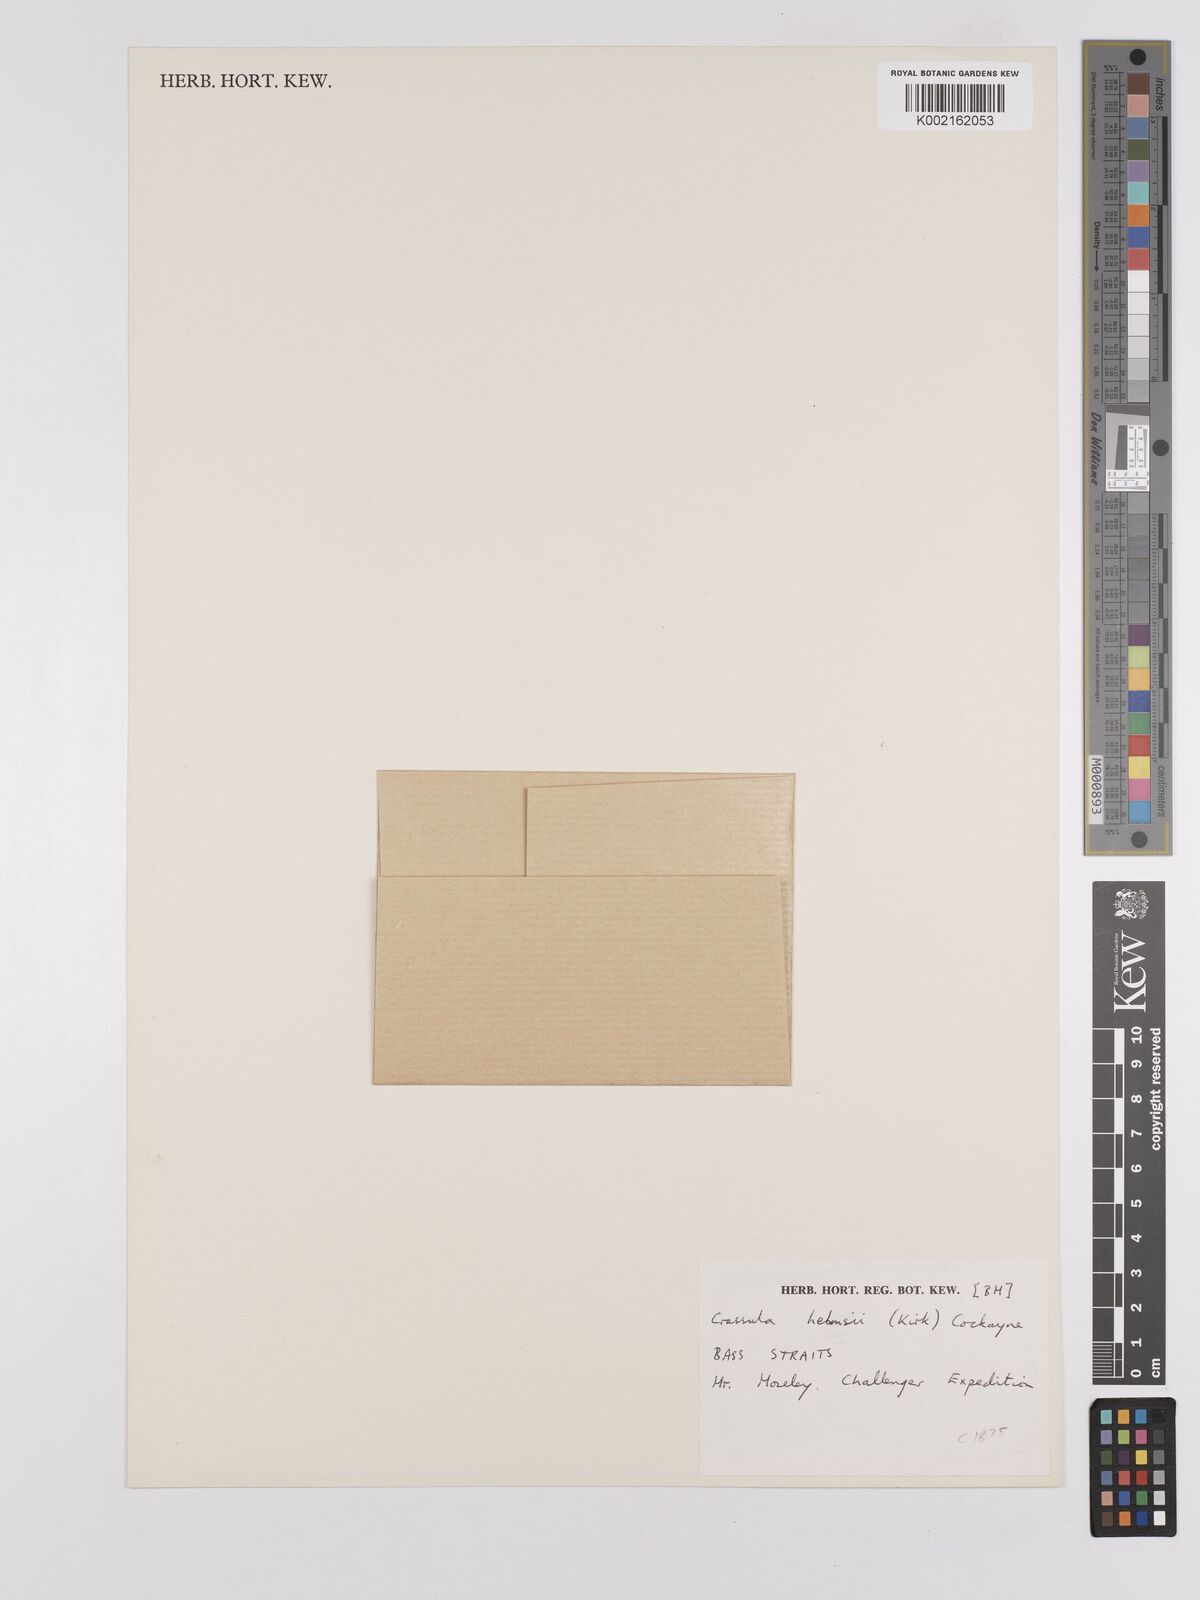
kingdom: Plantae
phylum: Tracheophyta
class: Magnoliopsida
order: Saxifragales
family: Crassulaceae
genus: Crassula
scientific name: Crassula helmsii
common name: New zealand pigmyweed
